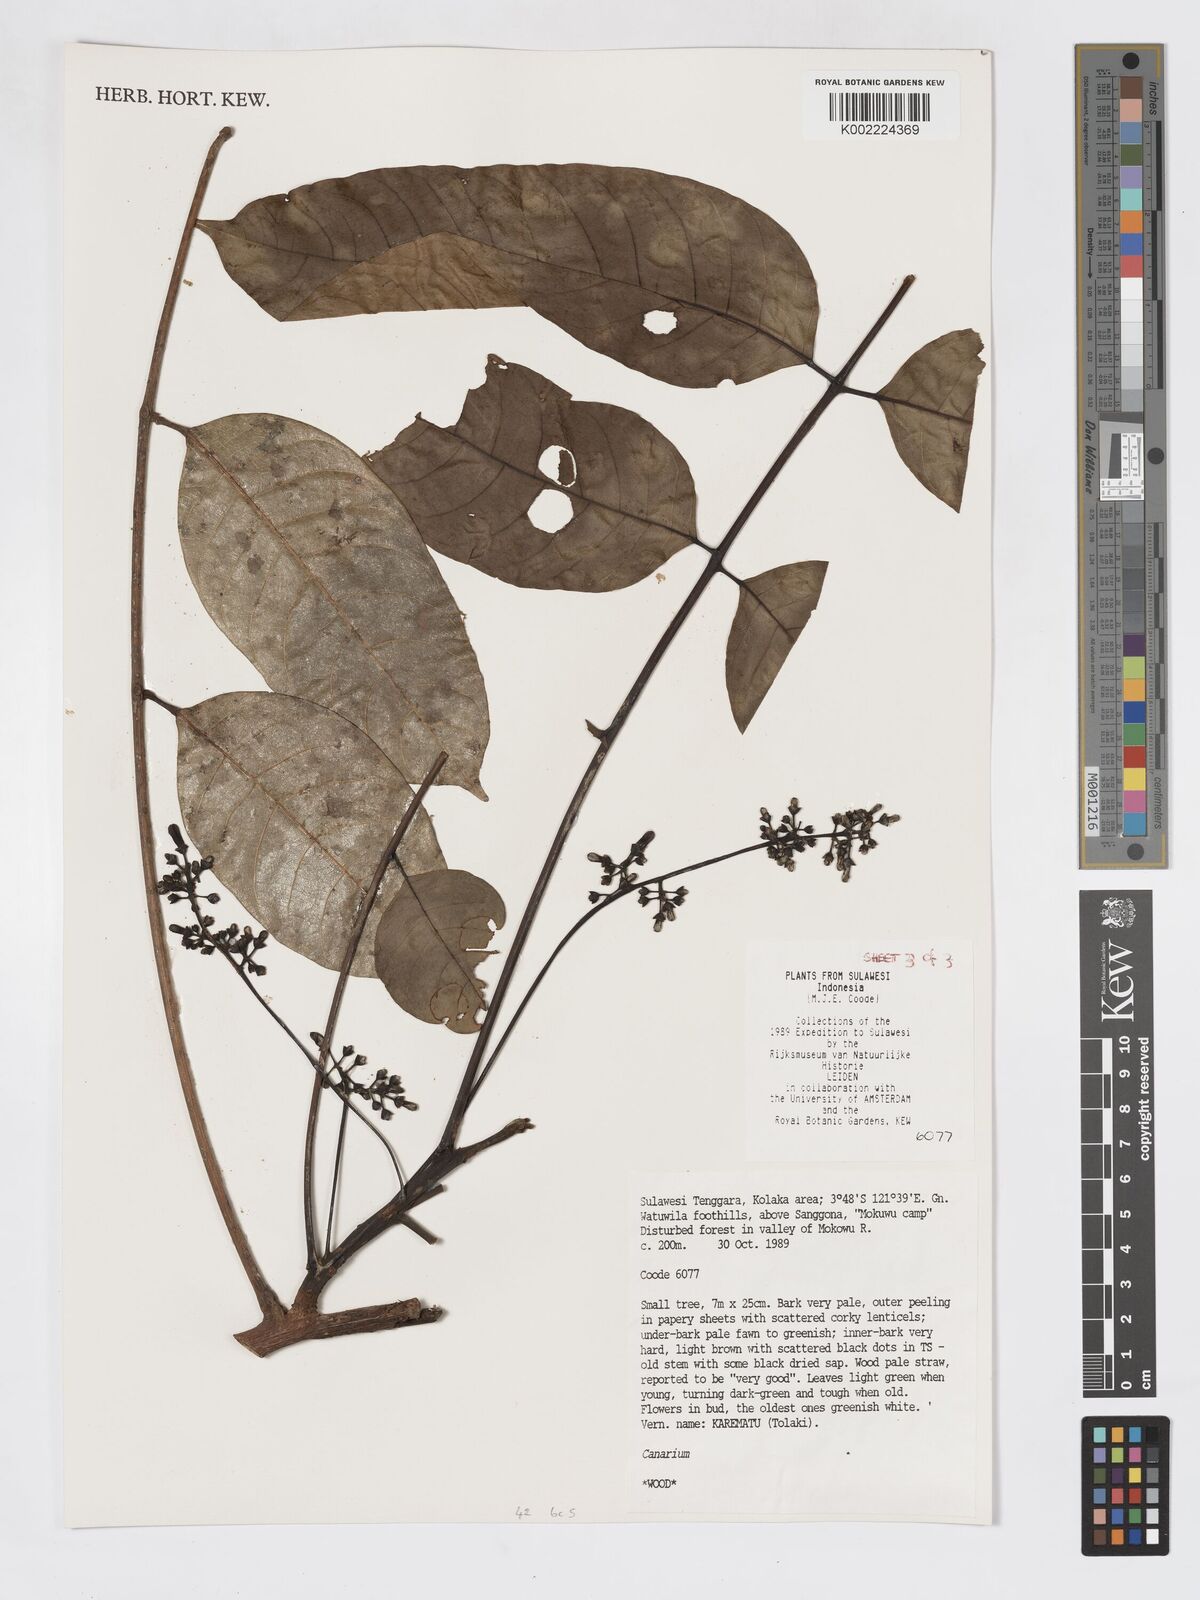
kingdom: Plantae
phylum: Tracheophyta
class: Magnoliopsida
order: Sapindales
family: Burseraceae
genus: Canarium
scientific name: Canarium
